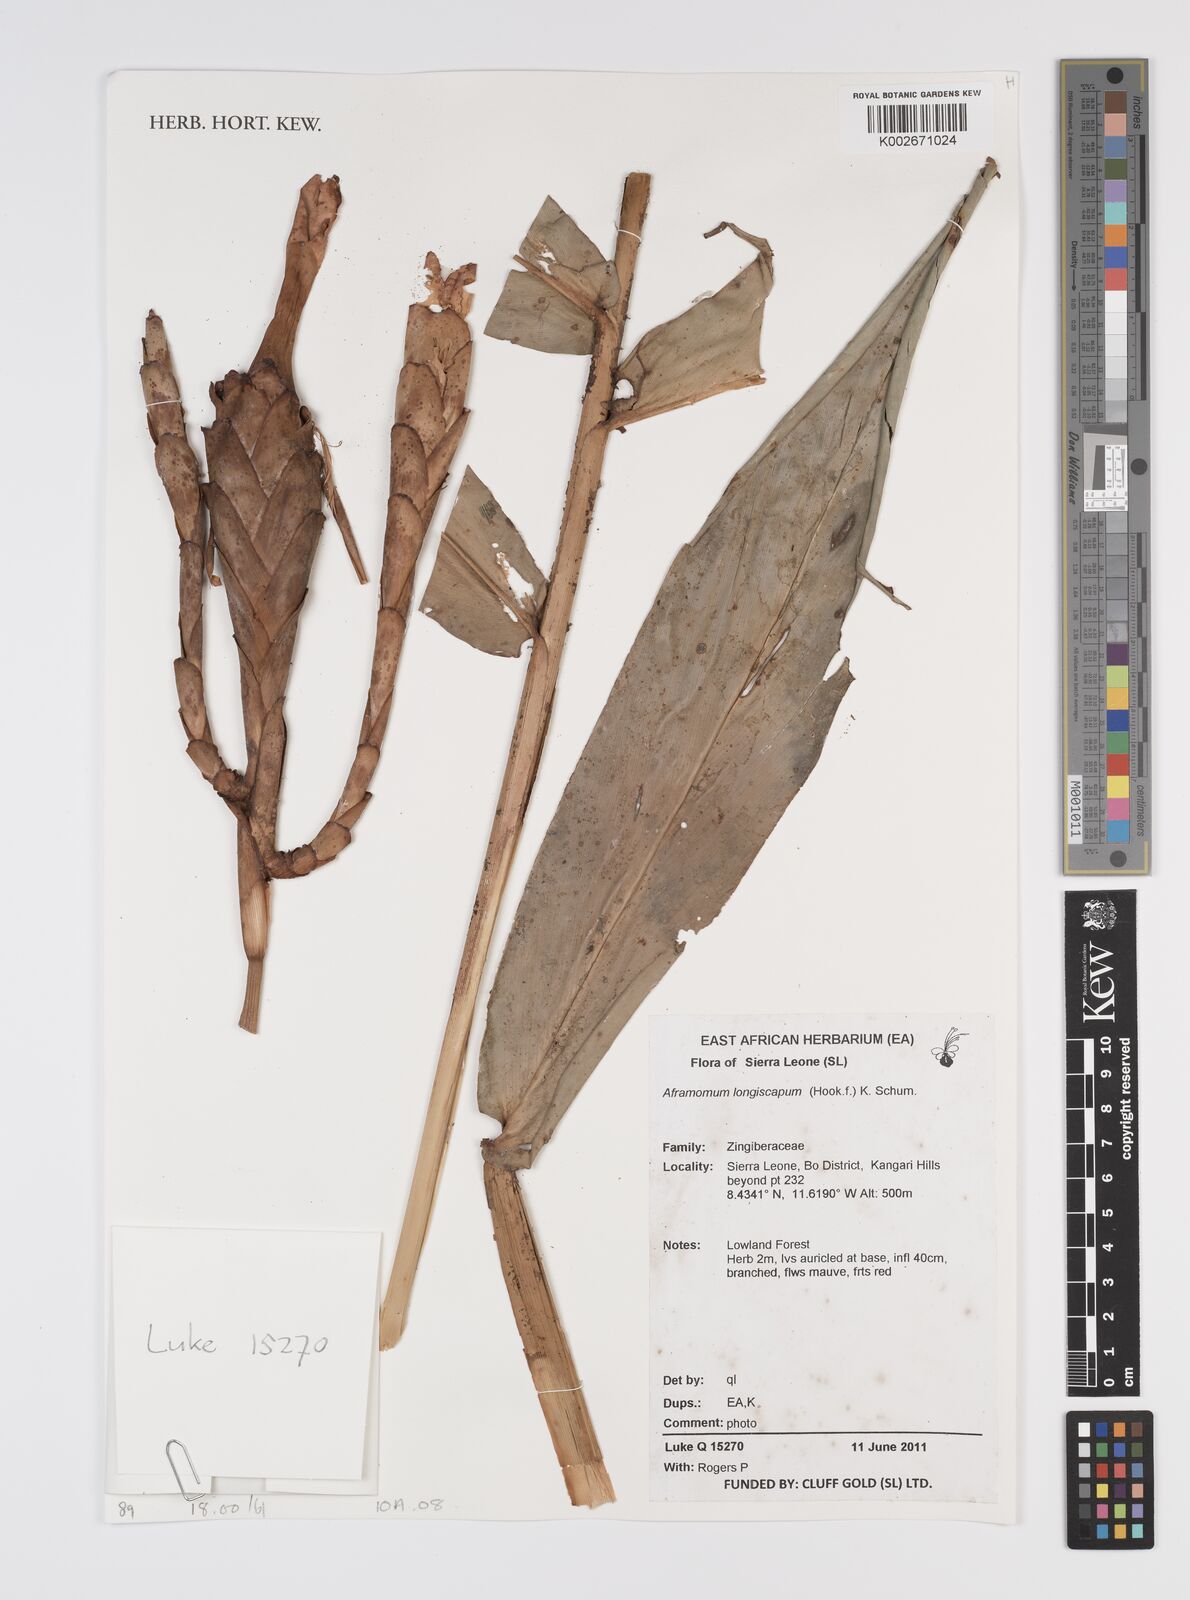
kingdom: Plantae
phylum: Tracheophyta
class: Liliopsida
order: Zingiberales
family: Zingiberaceae
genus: Aframomum
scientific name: Aframomum longiscapum
